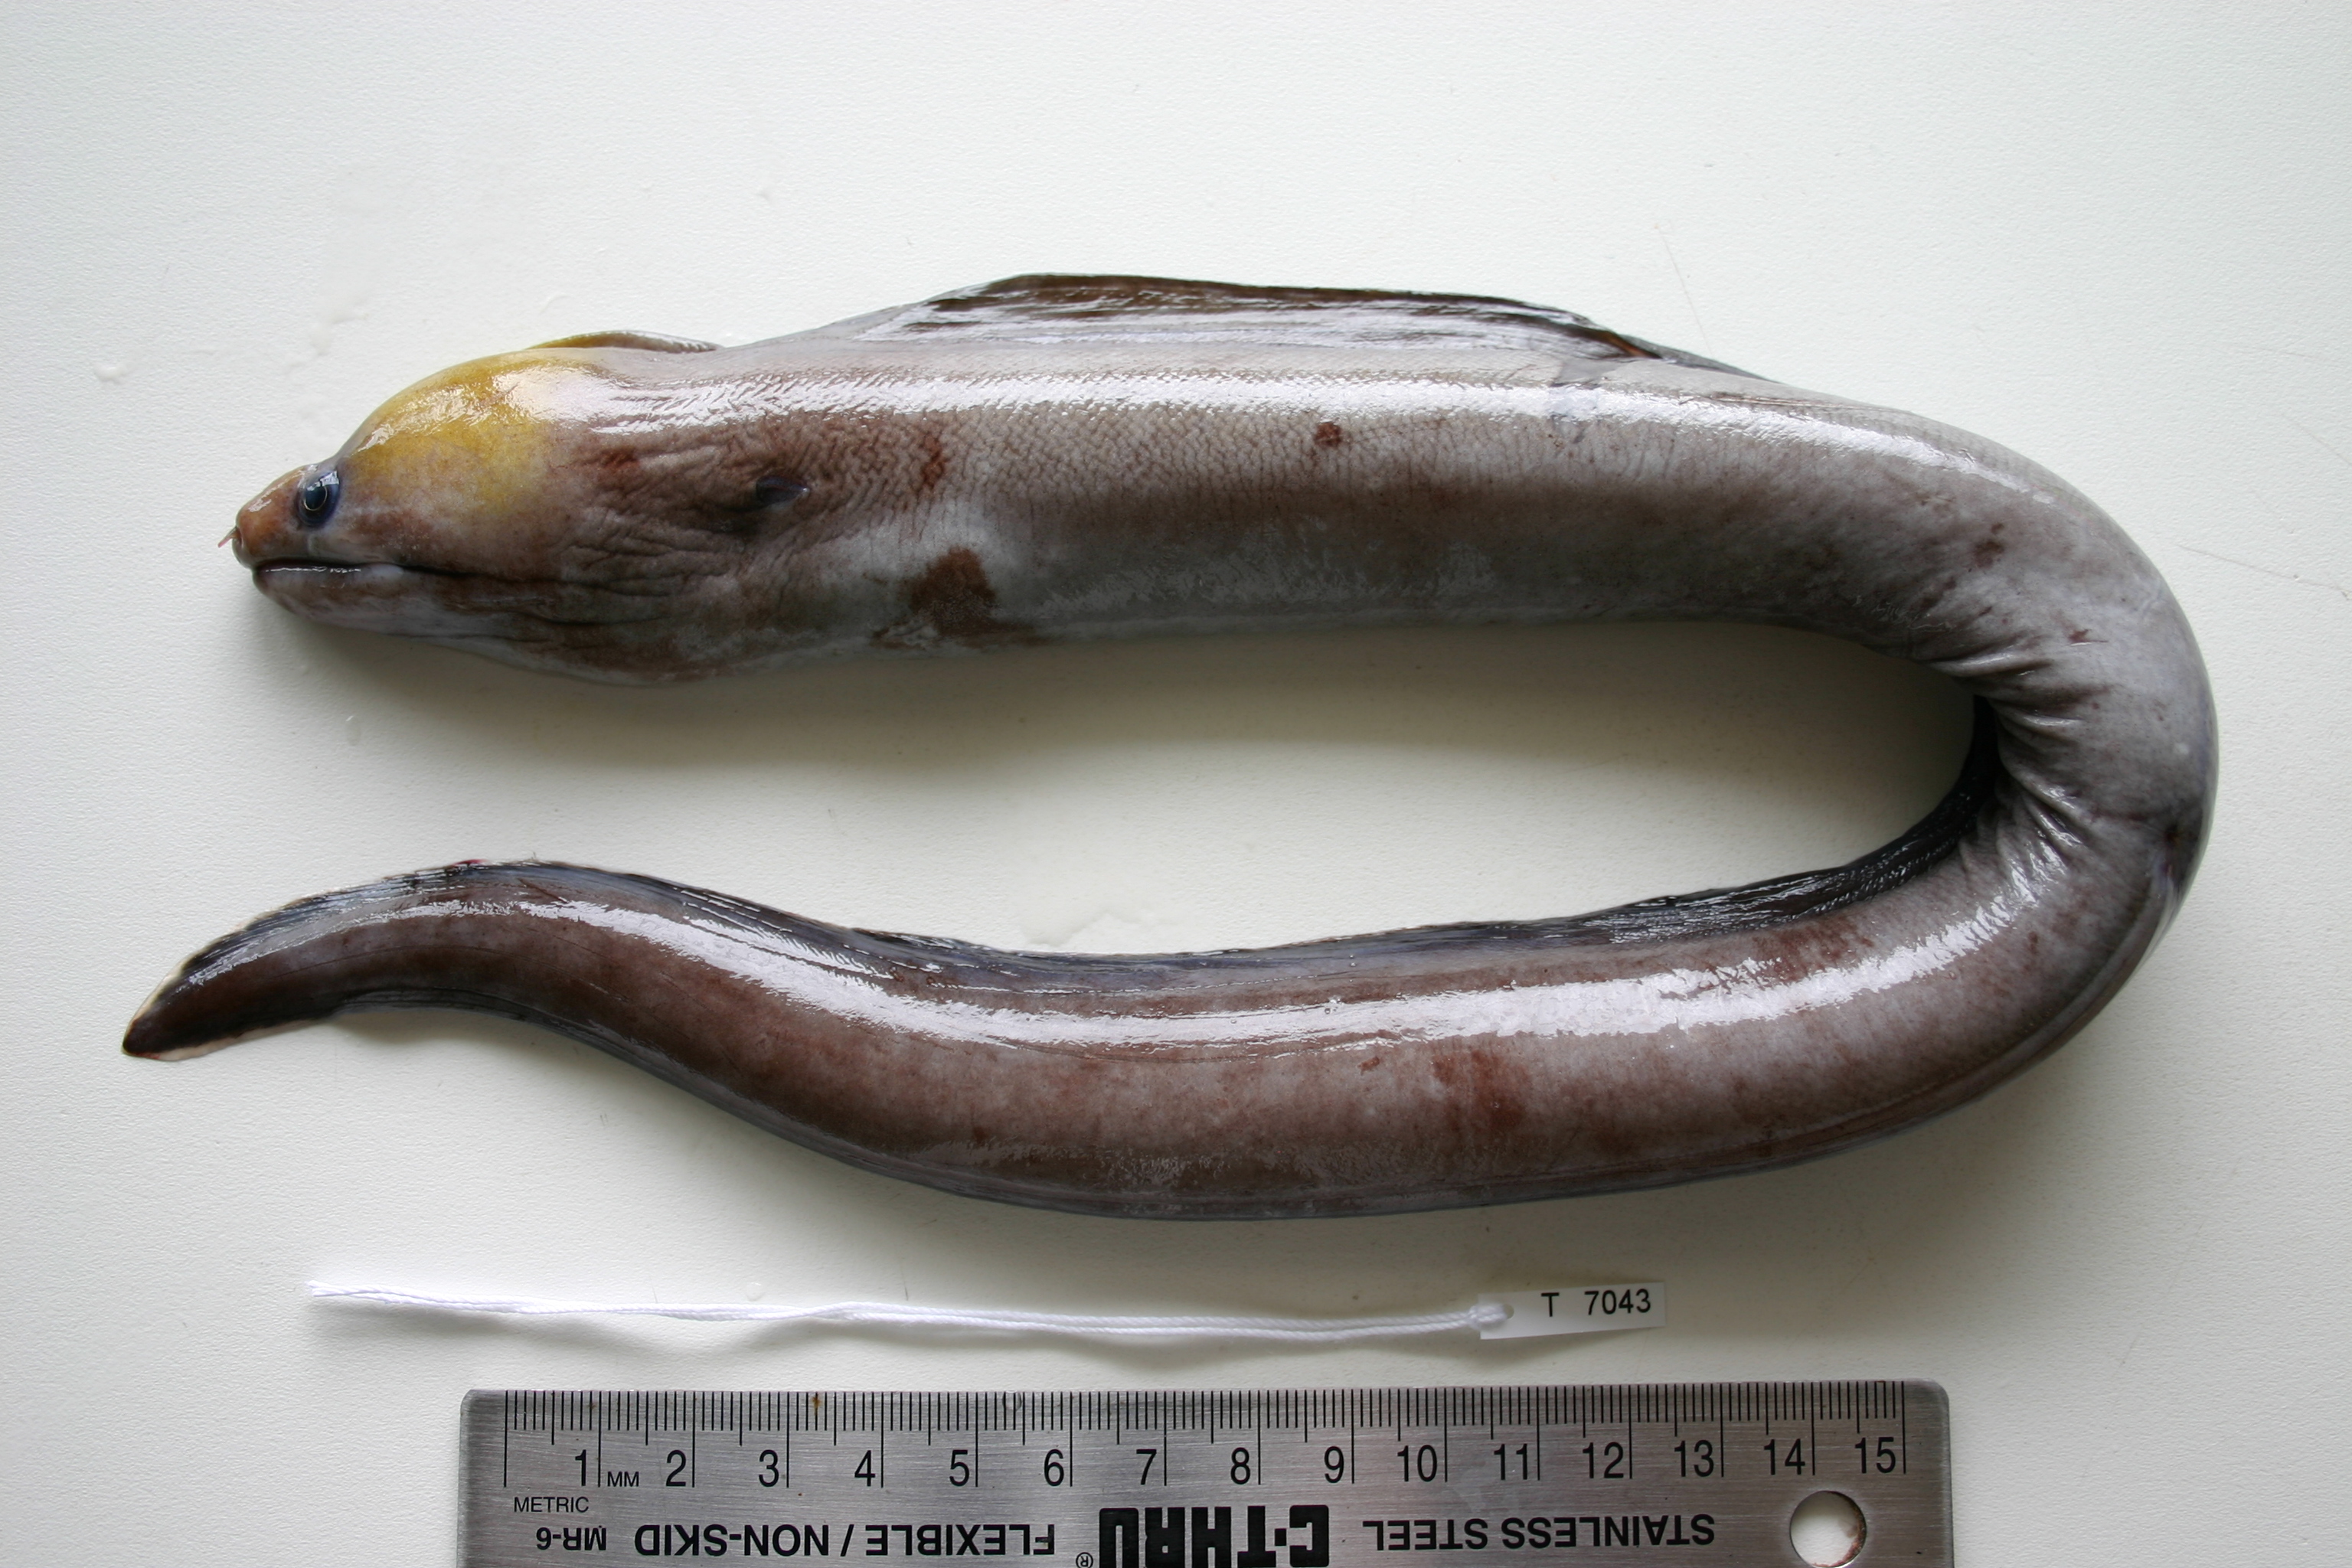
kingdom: Animalia
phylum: Chordata
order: Anguilliformes
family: Muraenidae
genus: Echidna
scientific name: Echidna leucotaenia
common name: Whiteface moray
